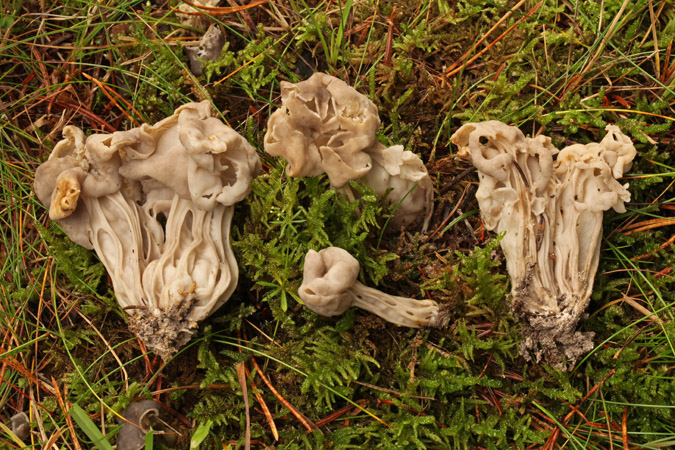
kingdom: Fungi
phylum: Ascomycota
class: Pezizomycetes
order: Pezizales
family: Helvellaceae
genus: Helvella
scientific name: Helvella crispa
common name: kruset foldhat
